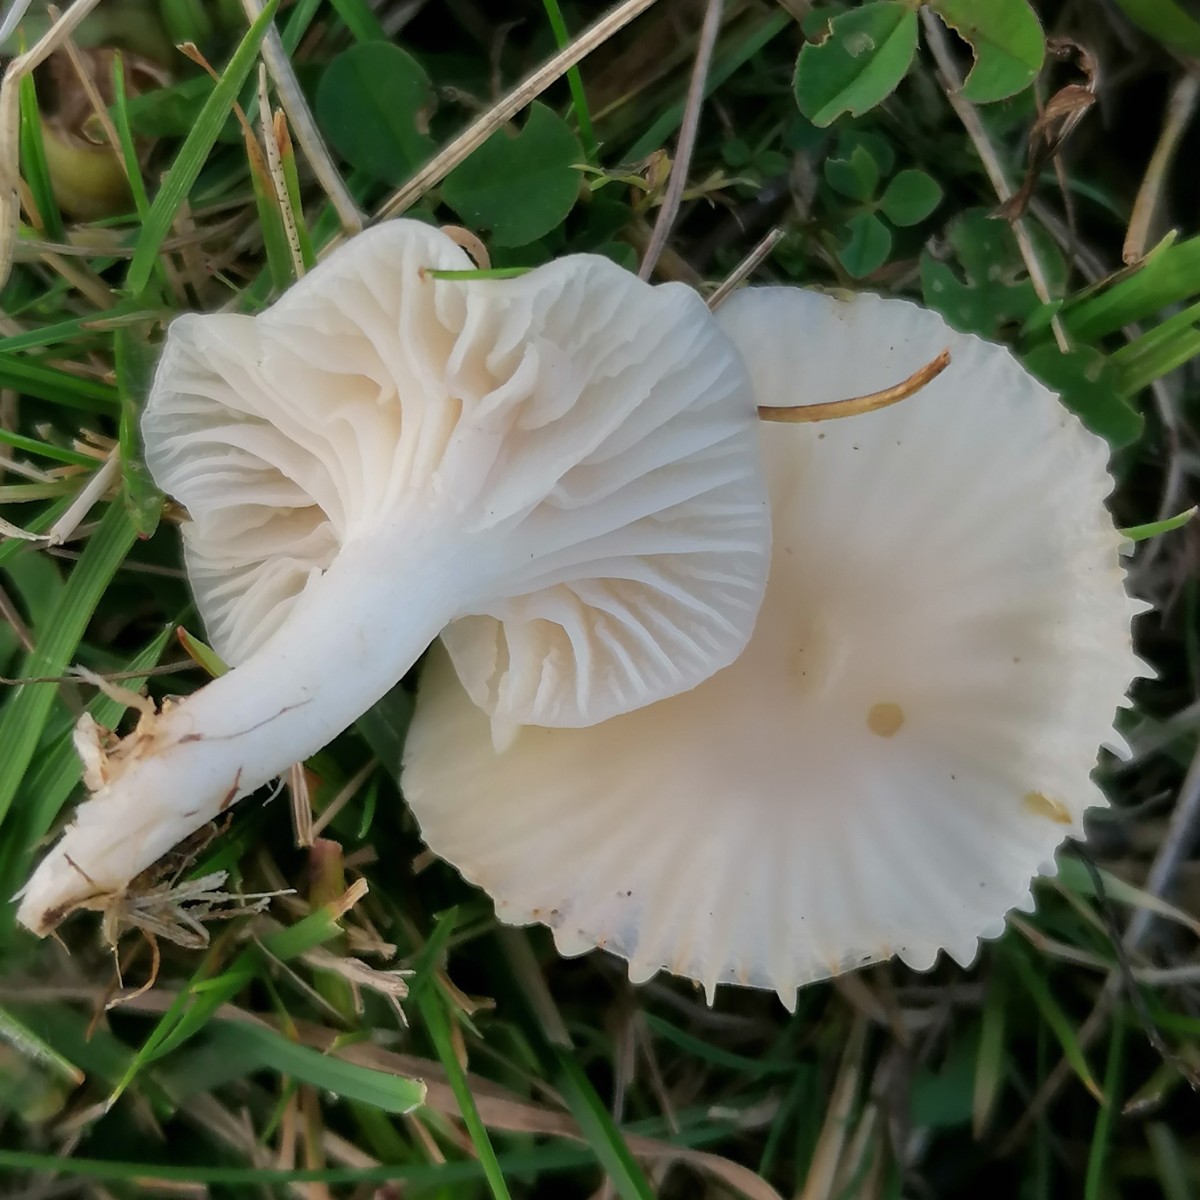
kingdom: Fungi
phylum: Basidiomycota
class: Agaricomycetes
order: Agaricales
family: Hygrophoraceae
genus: Cuphophyllus
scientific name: Cuphophyllus russocoriaceus
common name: ruslæder-vokshat
